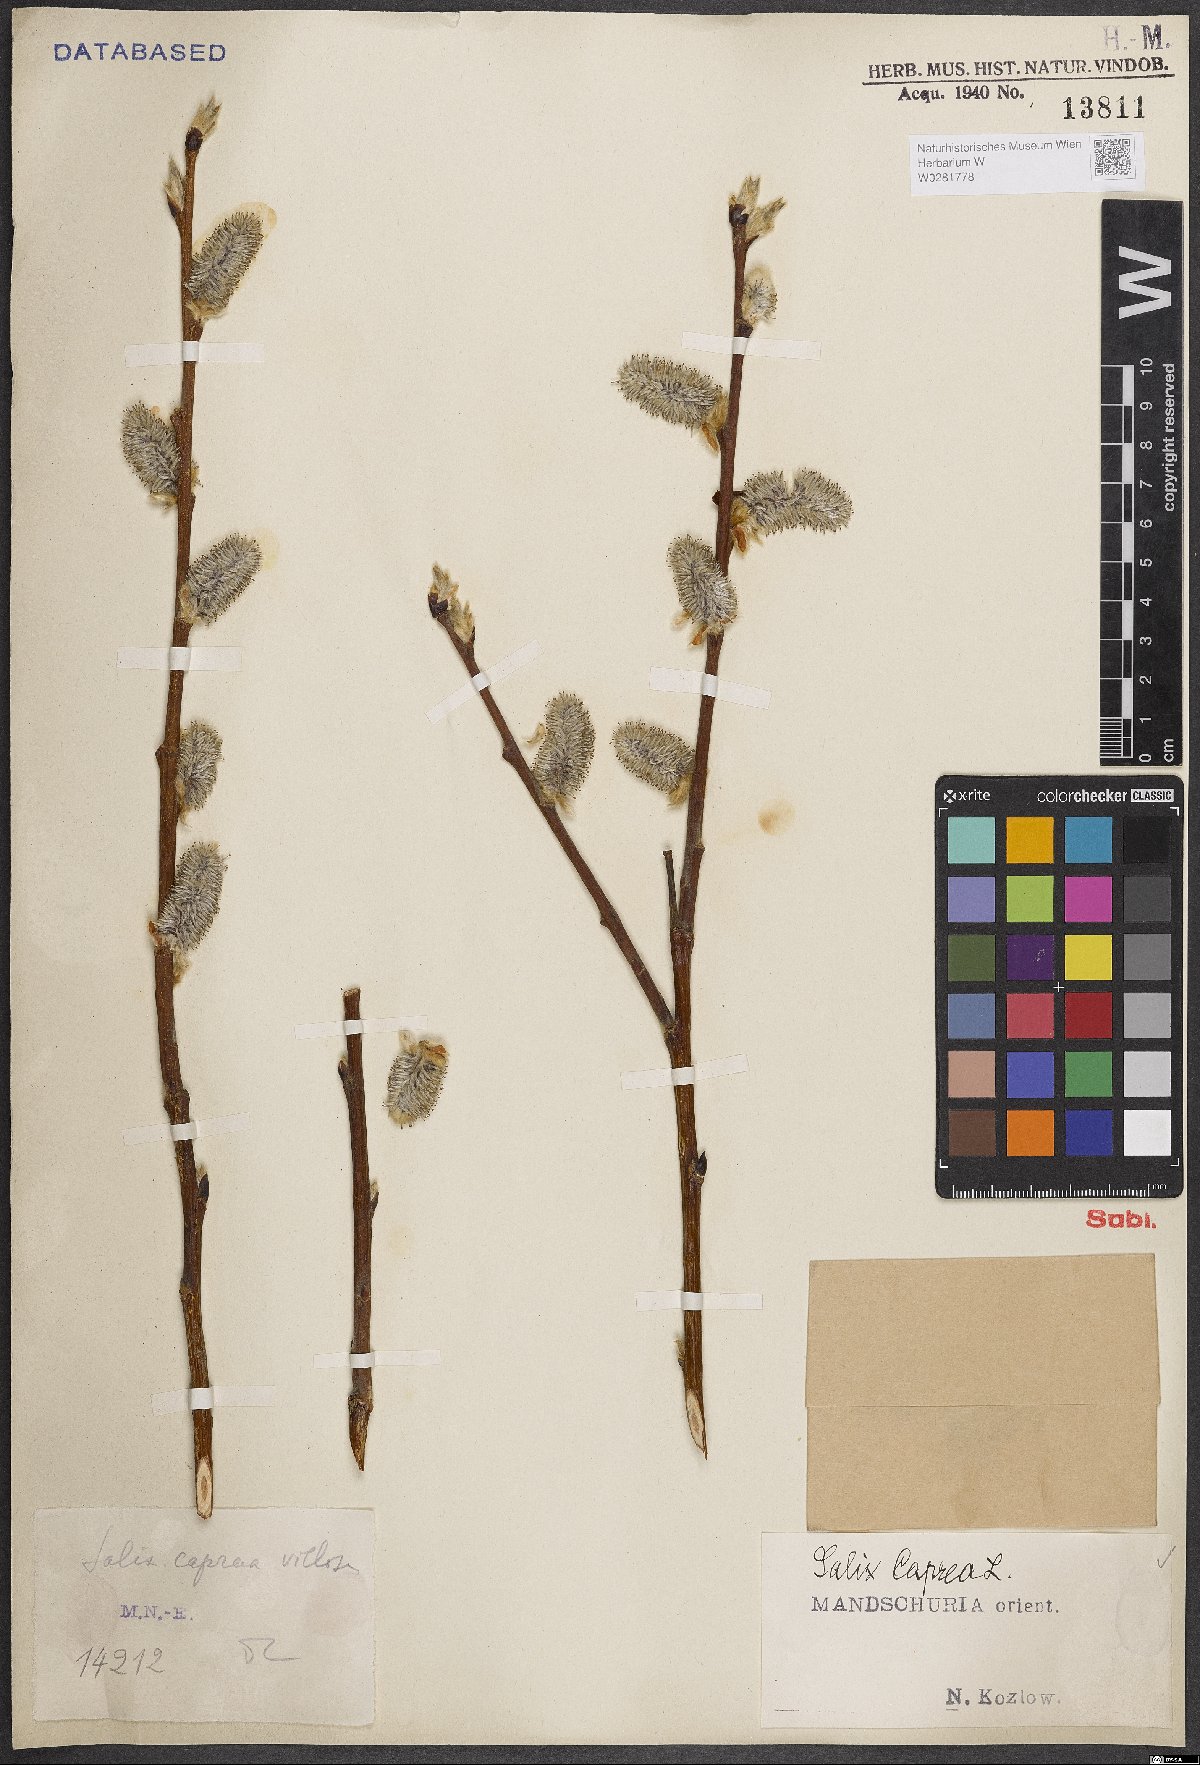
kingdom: Plantae
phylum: Tracheophyta
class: Magnoliopsida
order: Malpighiales
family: Salicaceae
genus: Salix
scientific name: Salix caprea
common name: Goat willow
